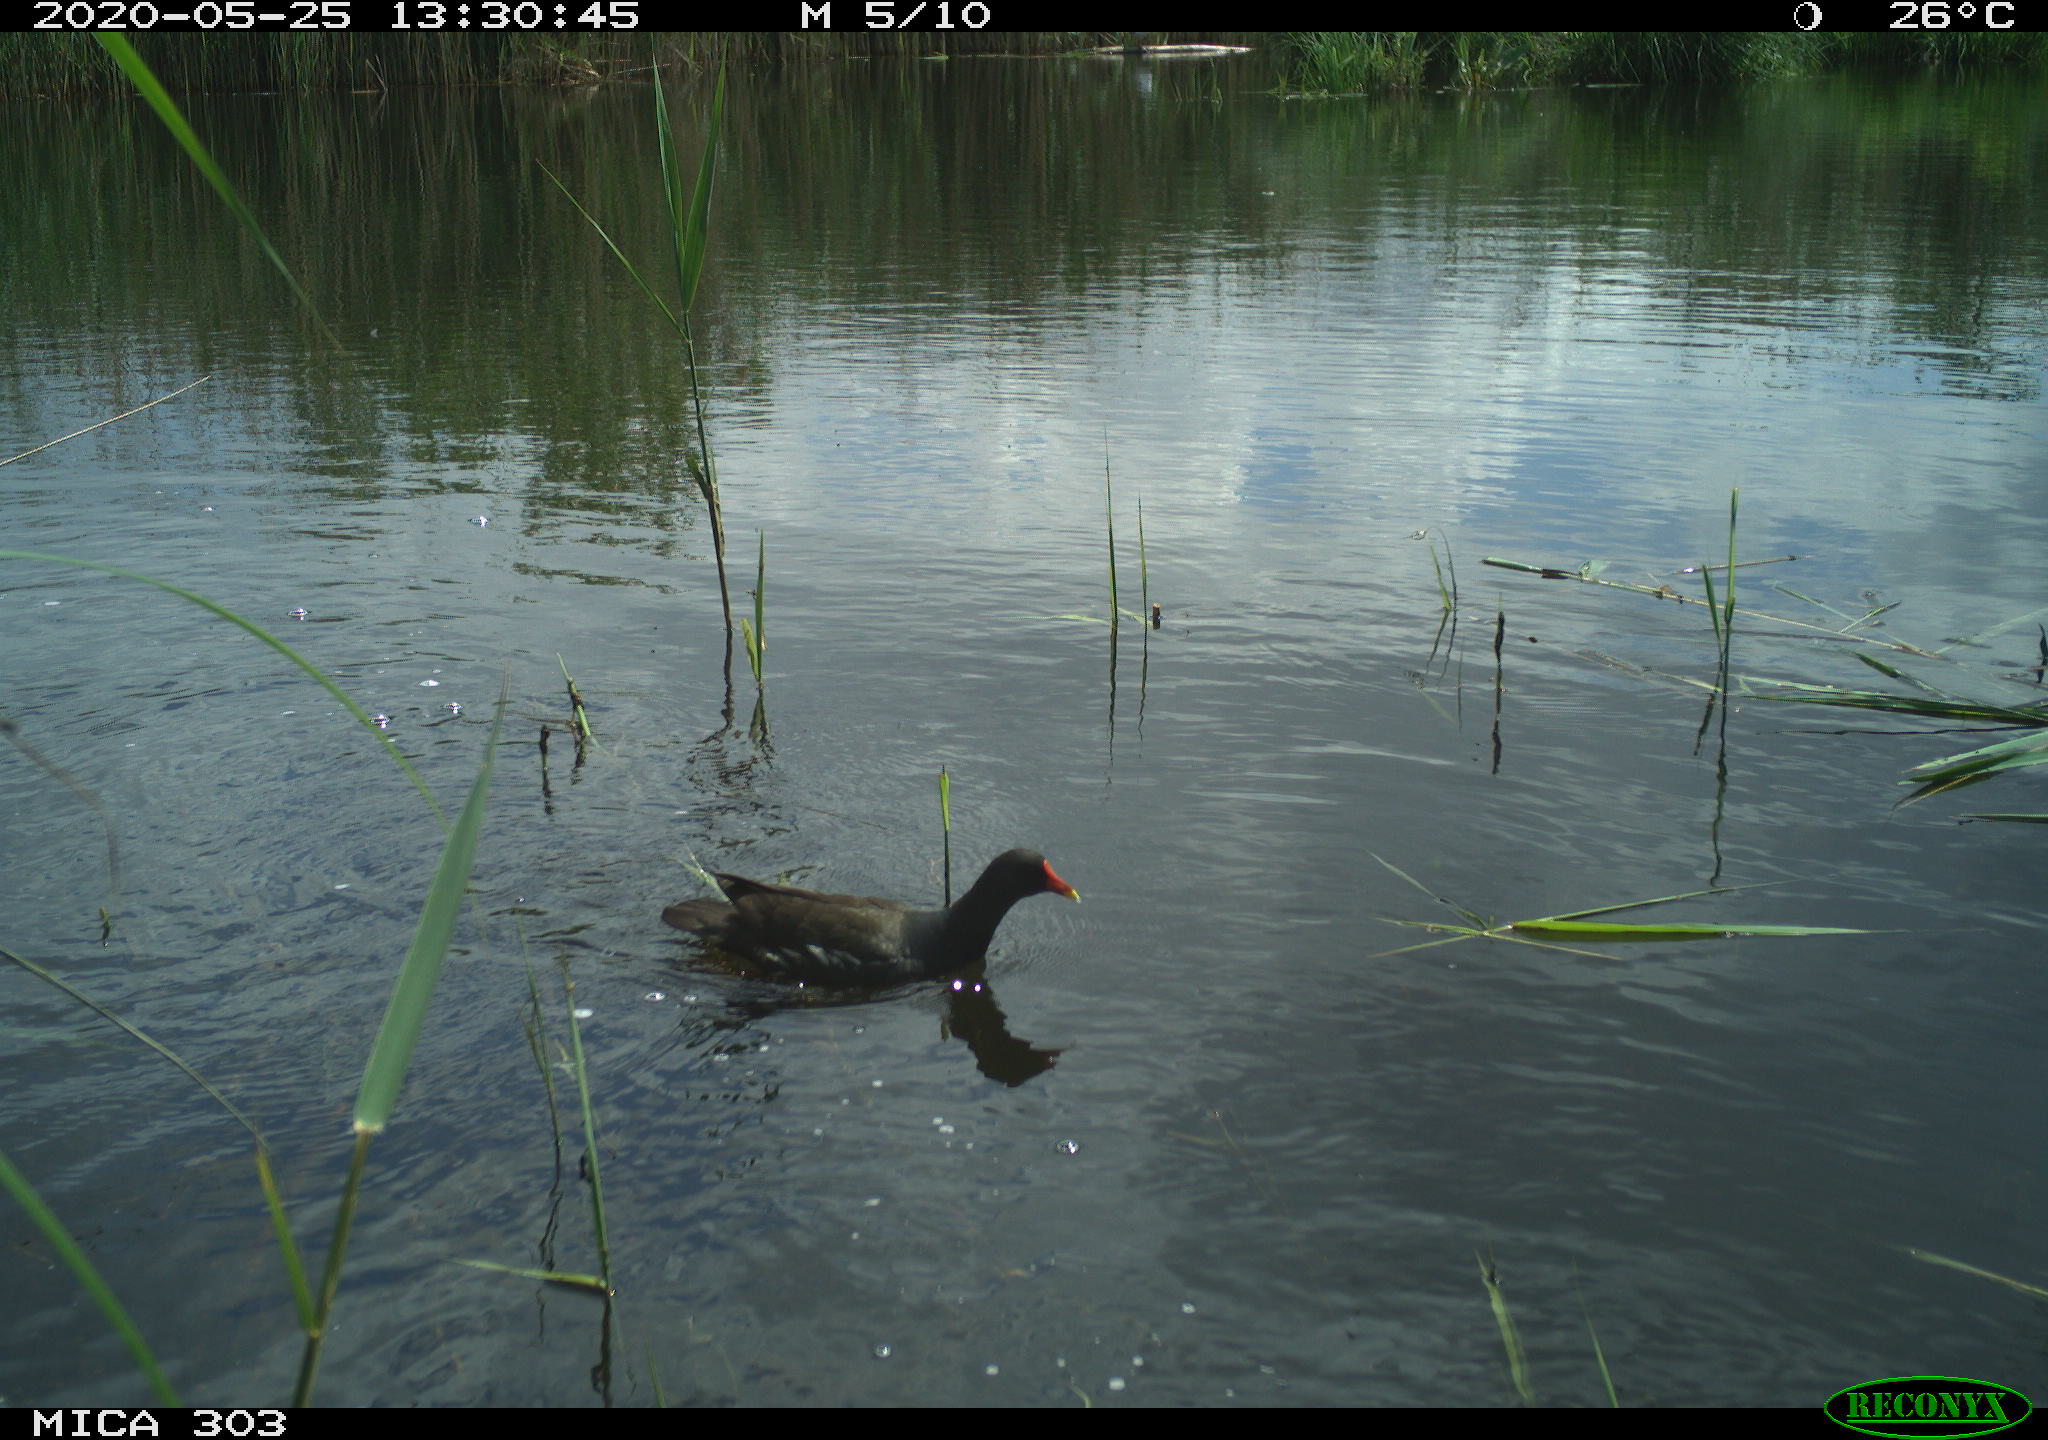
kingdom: Animalia
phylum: Chordata
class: Aves
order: Gruiformes
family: Rallidae
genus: Gallinula
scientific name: Gallinula chloropus
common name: Common moorhen
